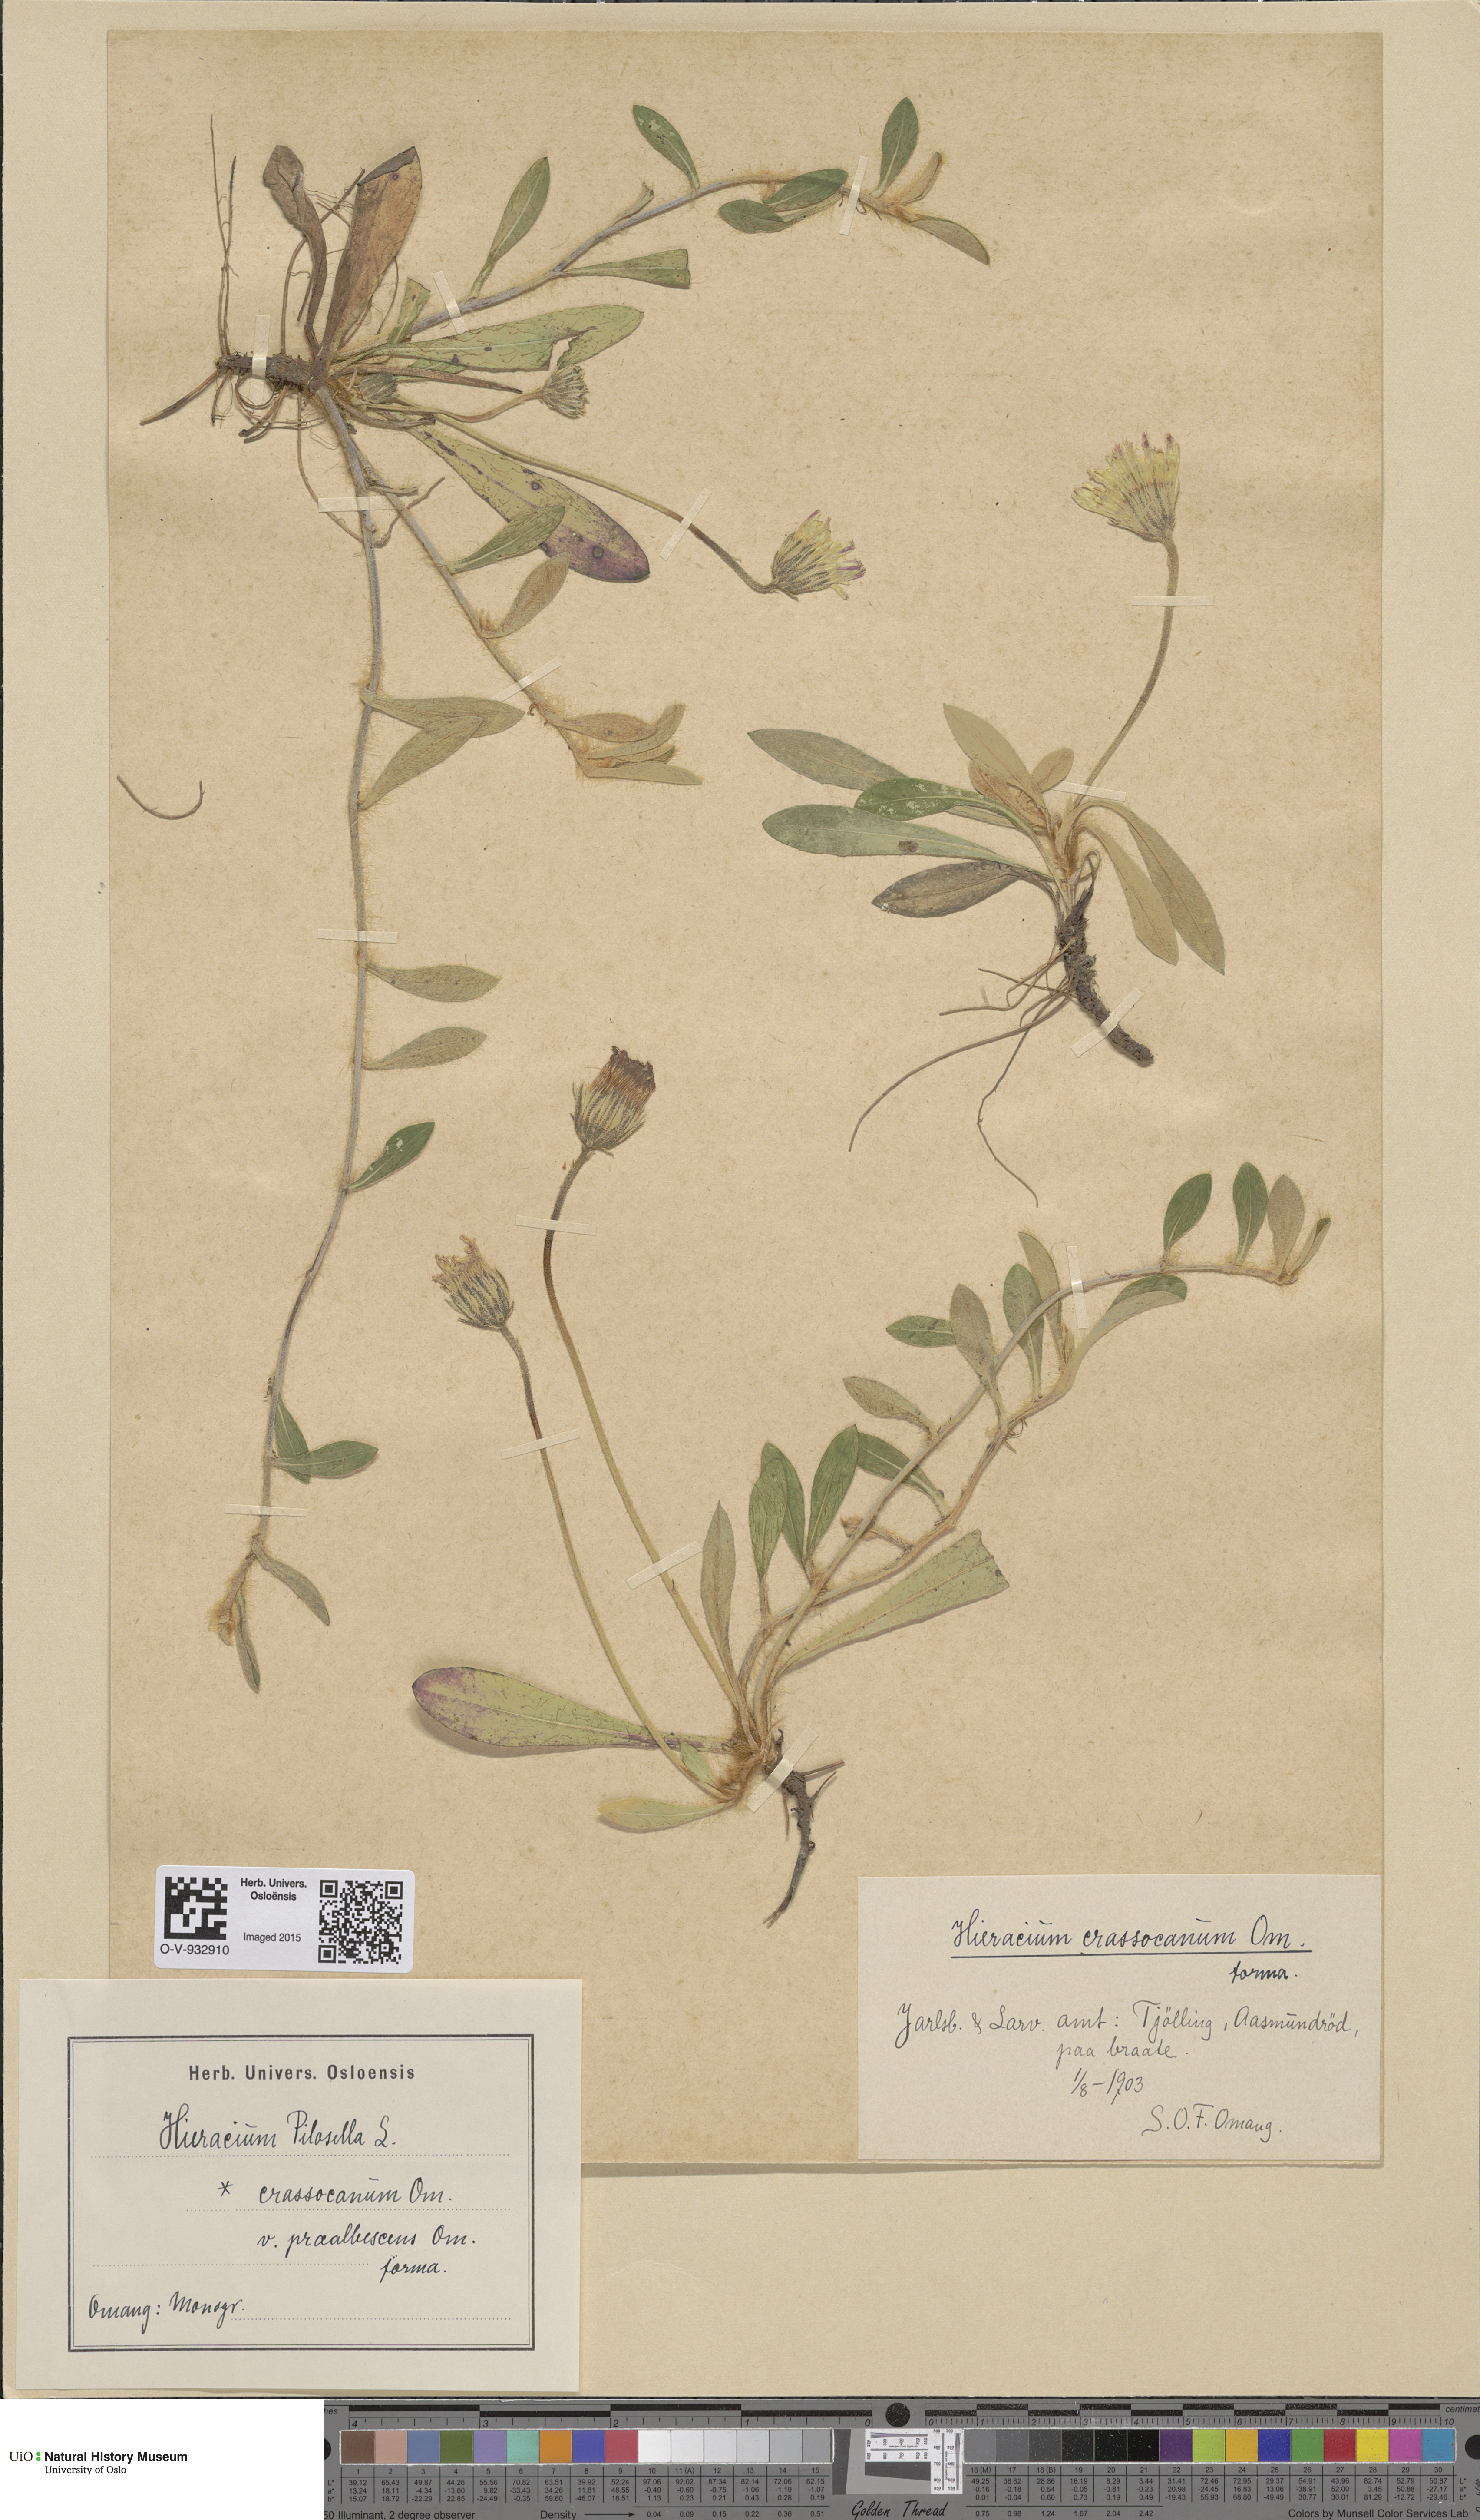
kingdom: Plantae
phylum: Tracheophyta
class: Magnoliopsida
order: Asterales
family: Asteraceae
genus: Pilosella
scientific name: Pilosella officinarum
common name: Mouse-ear hawkweed
